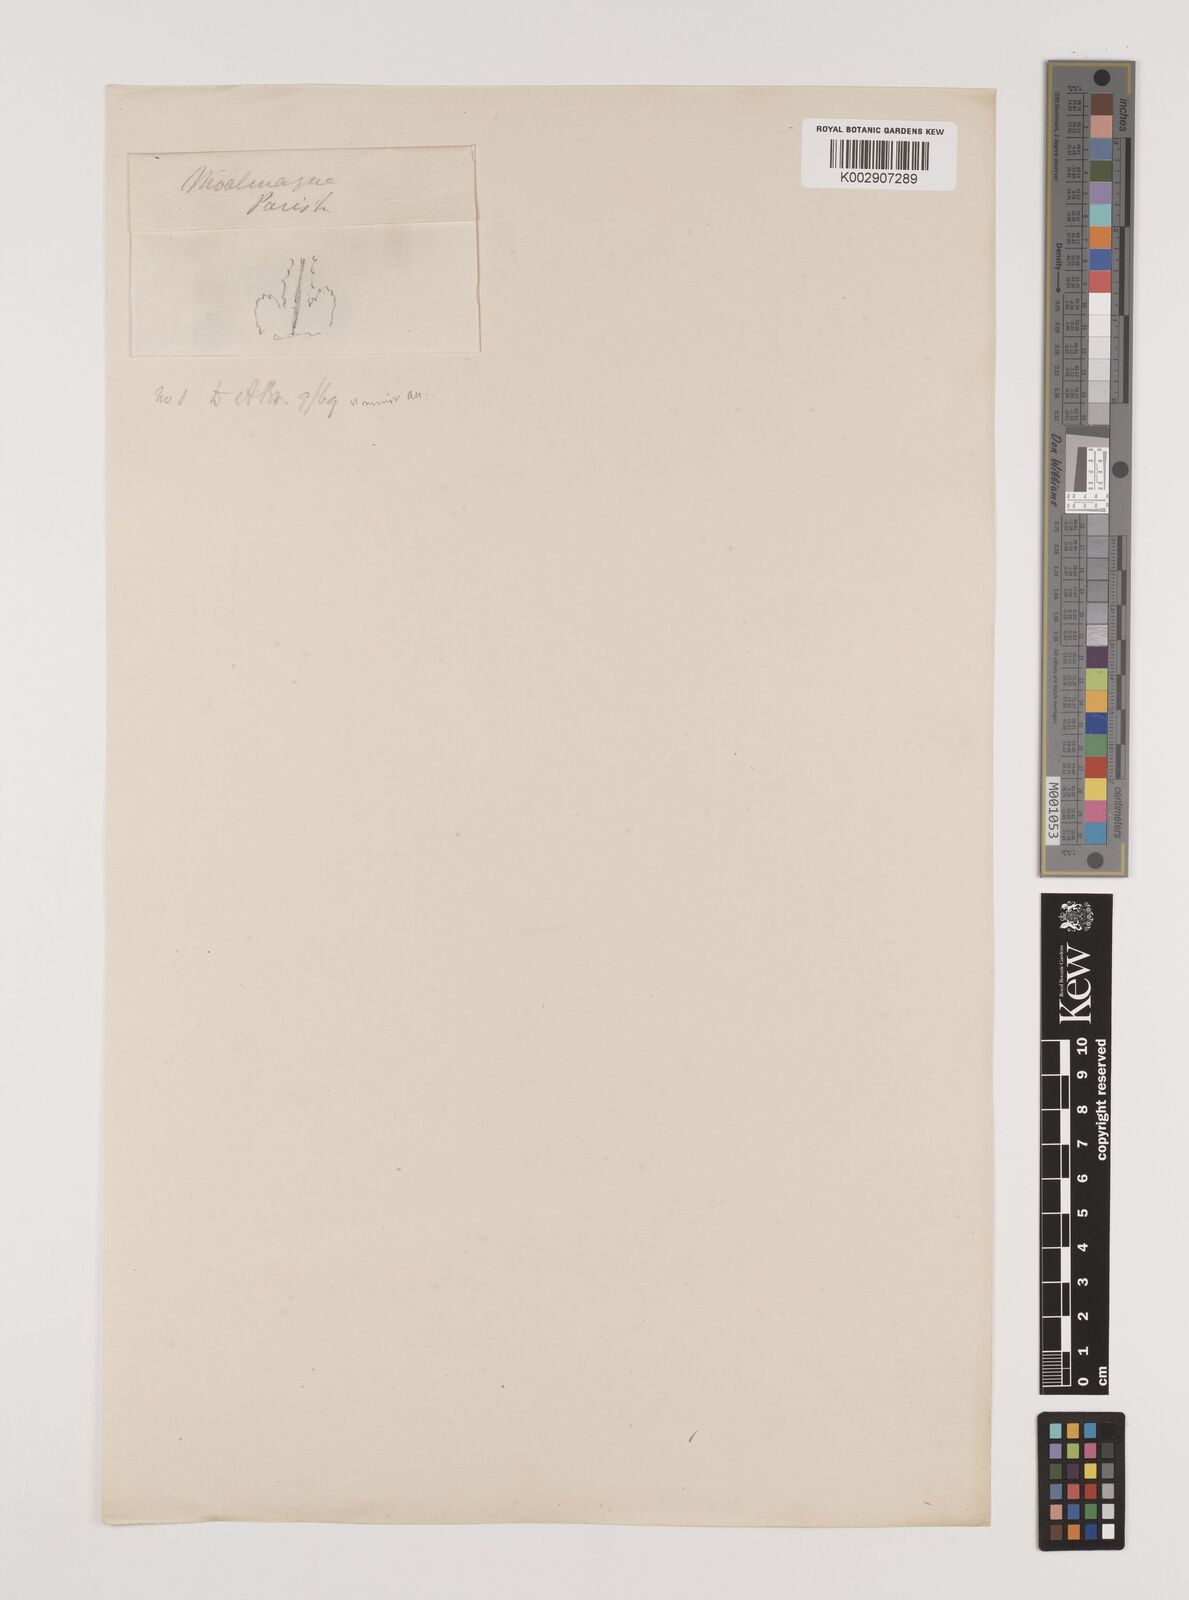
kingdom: Plantae
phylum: Tracheophyta
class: Liliopsida
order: Alismatales
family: Hydrocharitaceae
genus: Najas
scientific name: Najas minor
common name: Brittle naiad
